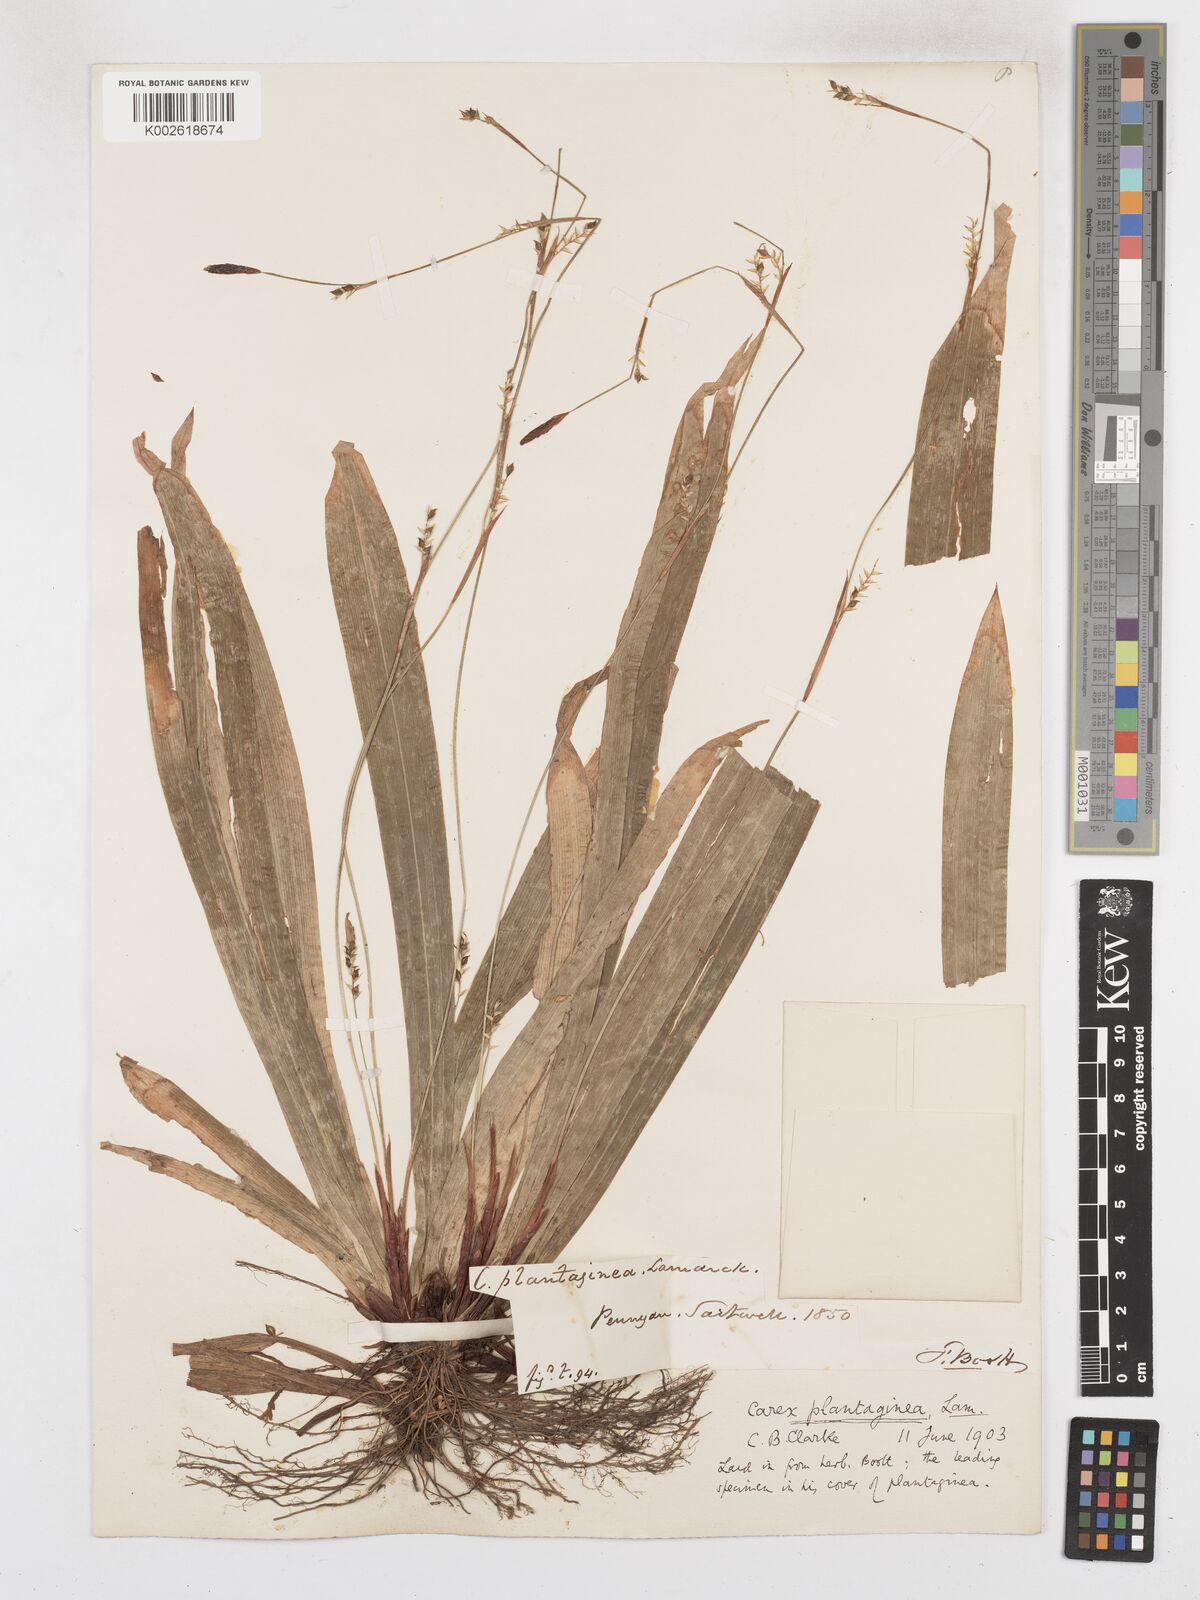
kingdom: Plantae
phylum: Tracheophyta
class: Liliopsida
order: Poales
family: Cyperaceae
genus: Carex
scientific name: Carex plantaginea
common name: Plantain-leaved sedge
